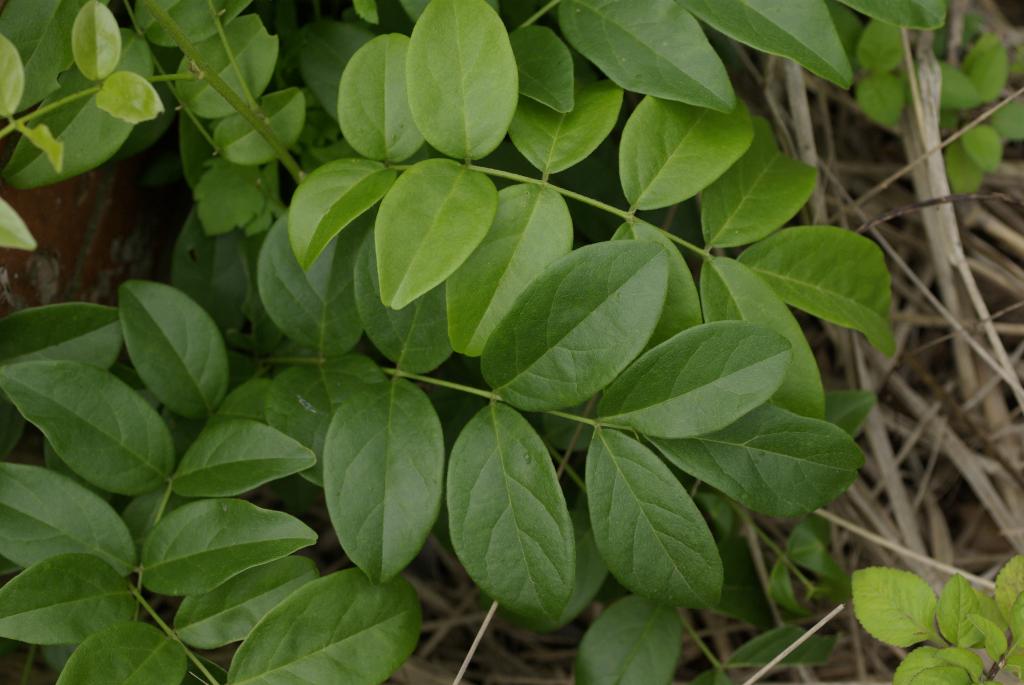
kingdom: Plantae
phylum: Tracheophyta
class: Magnoliopsida
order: Fabales
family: Fabaceae
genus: Wisteriopsis
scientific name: Wisteriopsis reticulata
